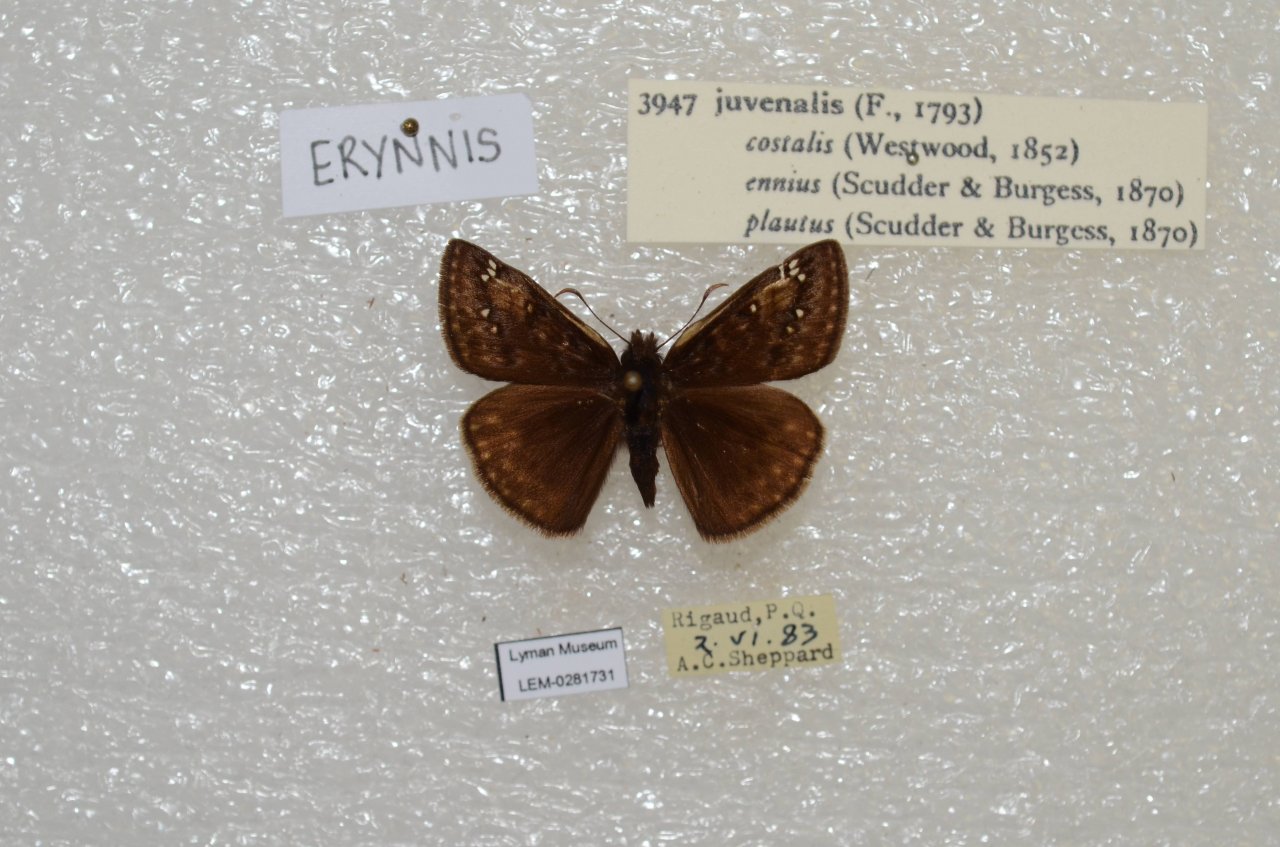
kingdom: Animalia
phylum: Arthropoda
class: Insecta
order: Lepidoptera
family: Hesperiidae
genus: Gesta
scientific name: Gesta
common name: Juvenal's Duskywing
